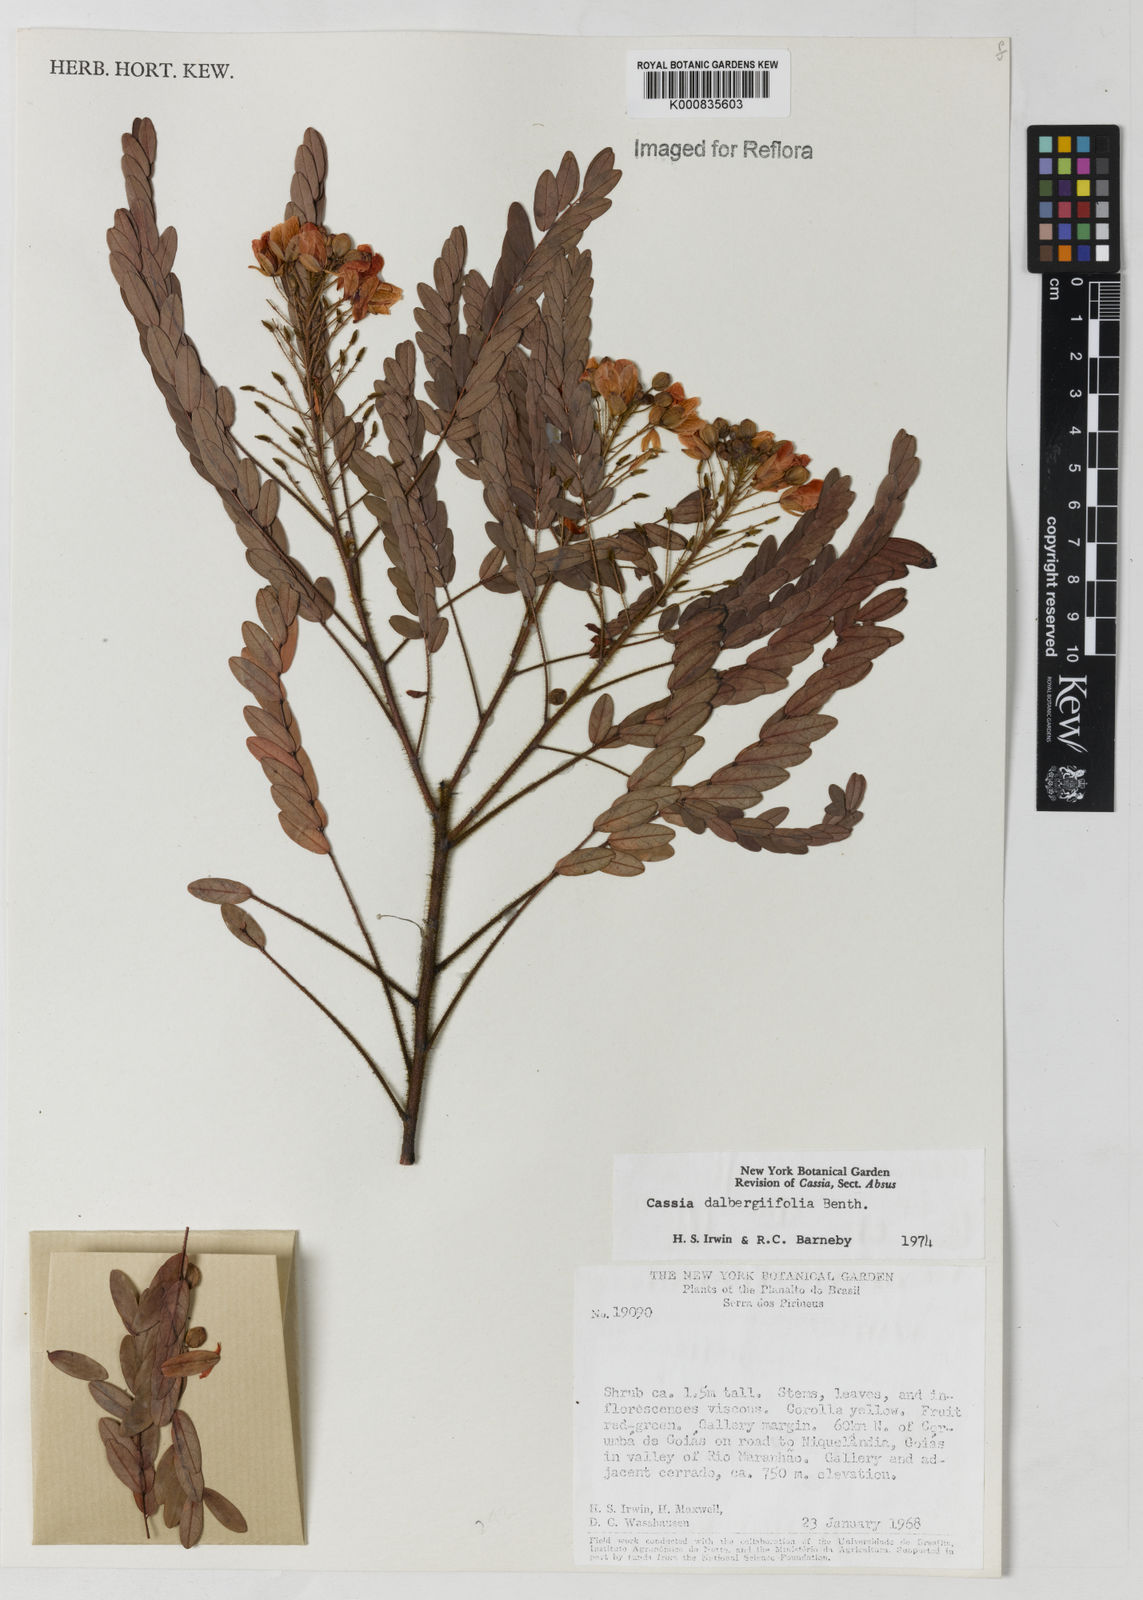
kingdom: Plantae
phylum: Tracheophyta
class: Magnoliopsida
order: Fabales
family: Fabaceae
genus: Chamaecrista
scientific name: Chamaecrista dalbergiifolia
